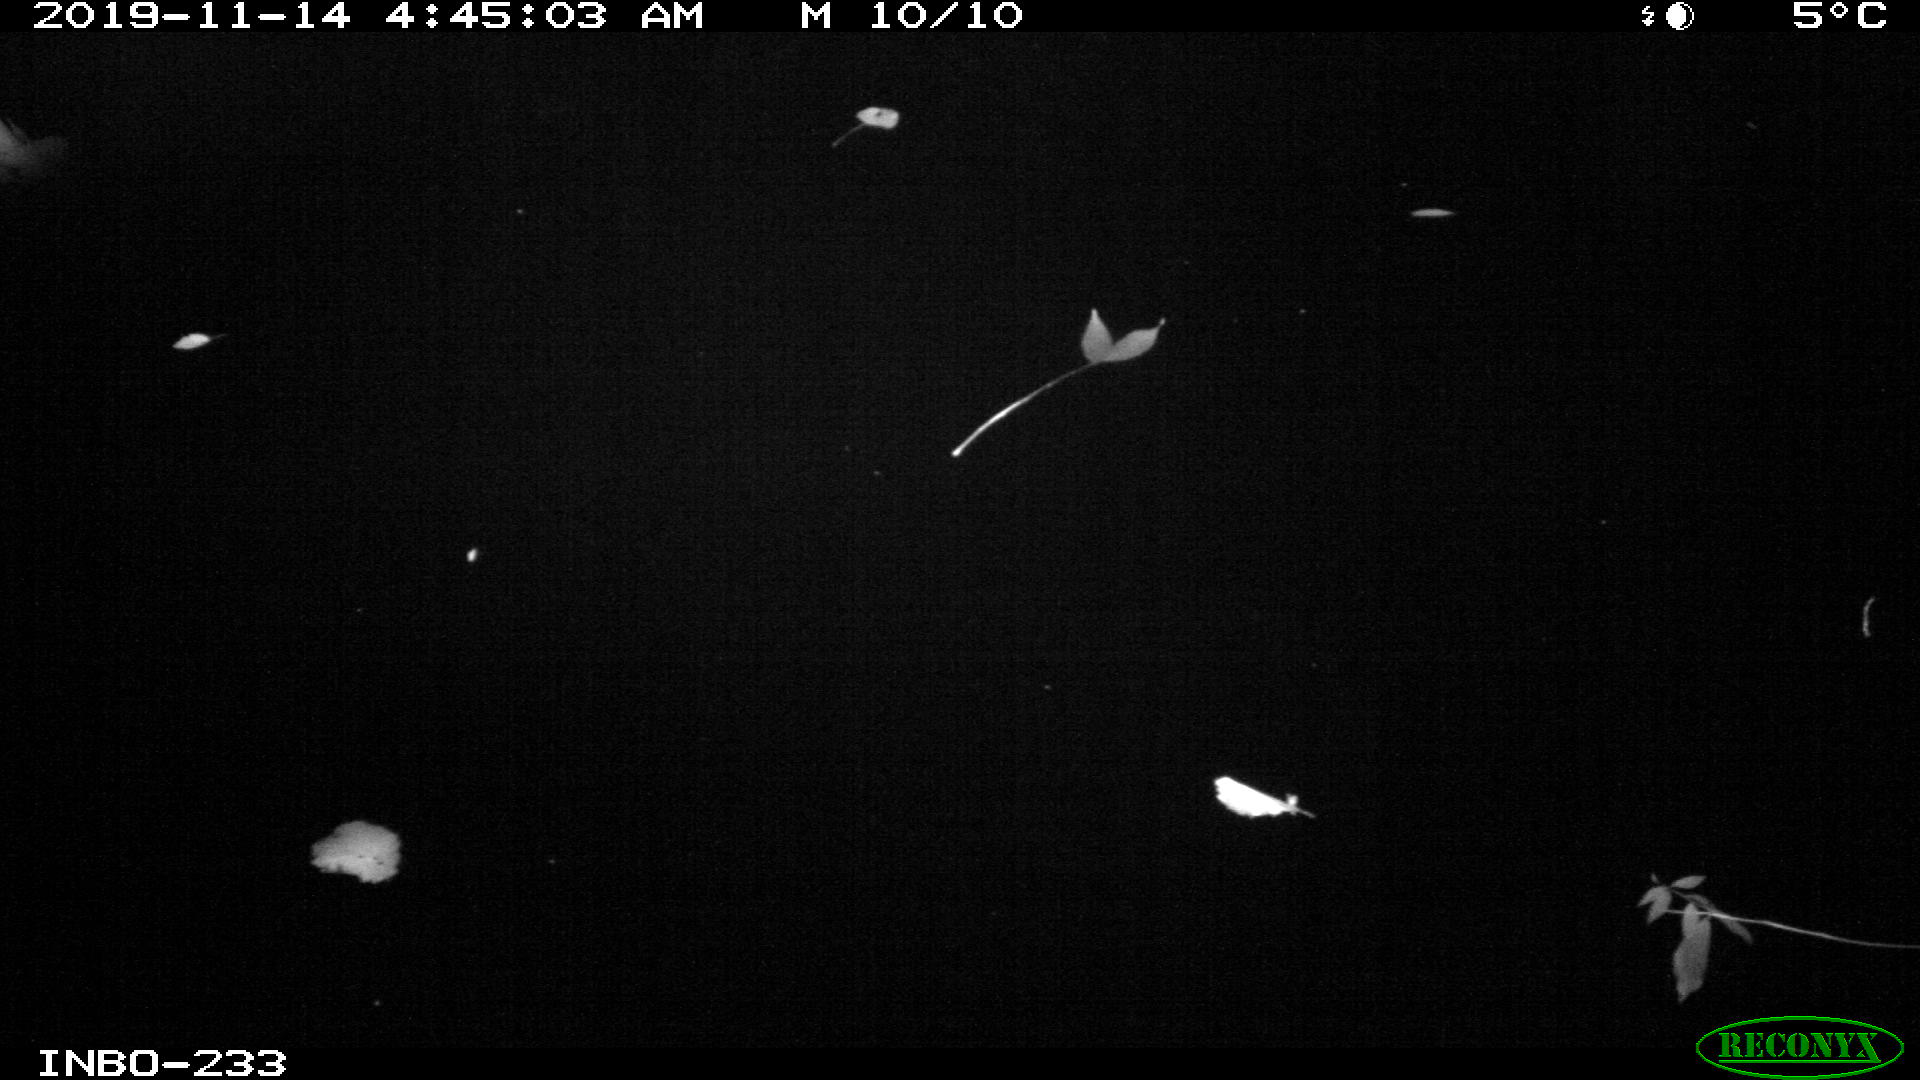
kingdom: Animalia
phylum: Chordata
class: Aves
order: Anseriformes
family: Anatidae
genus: Anas
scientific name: Anas platyrhynchos
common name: Mallard
